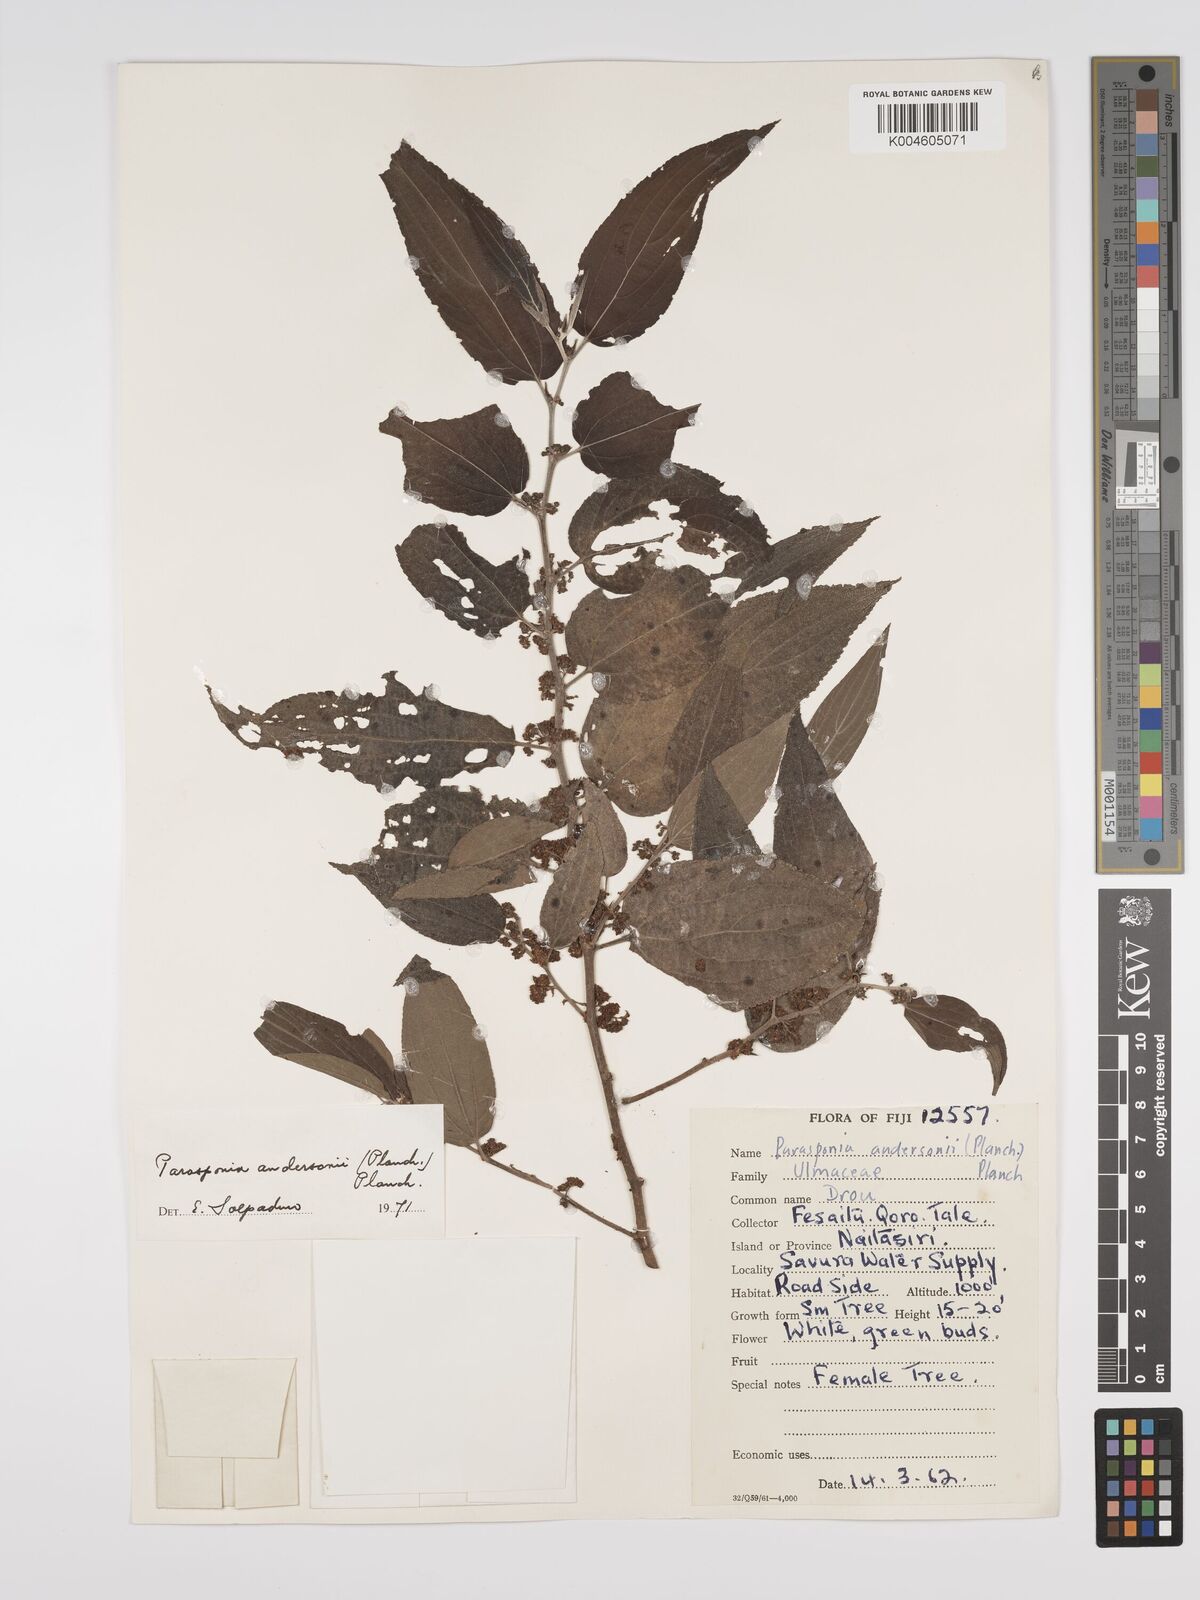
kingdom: Plantae
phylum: Tracheophyta
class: Magnoliopsida
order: Rosales
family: Cannabaceae
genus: Trema
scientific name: Trema andersonii
